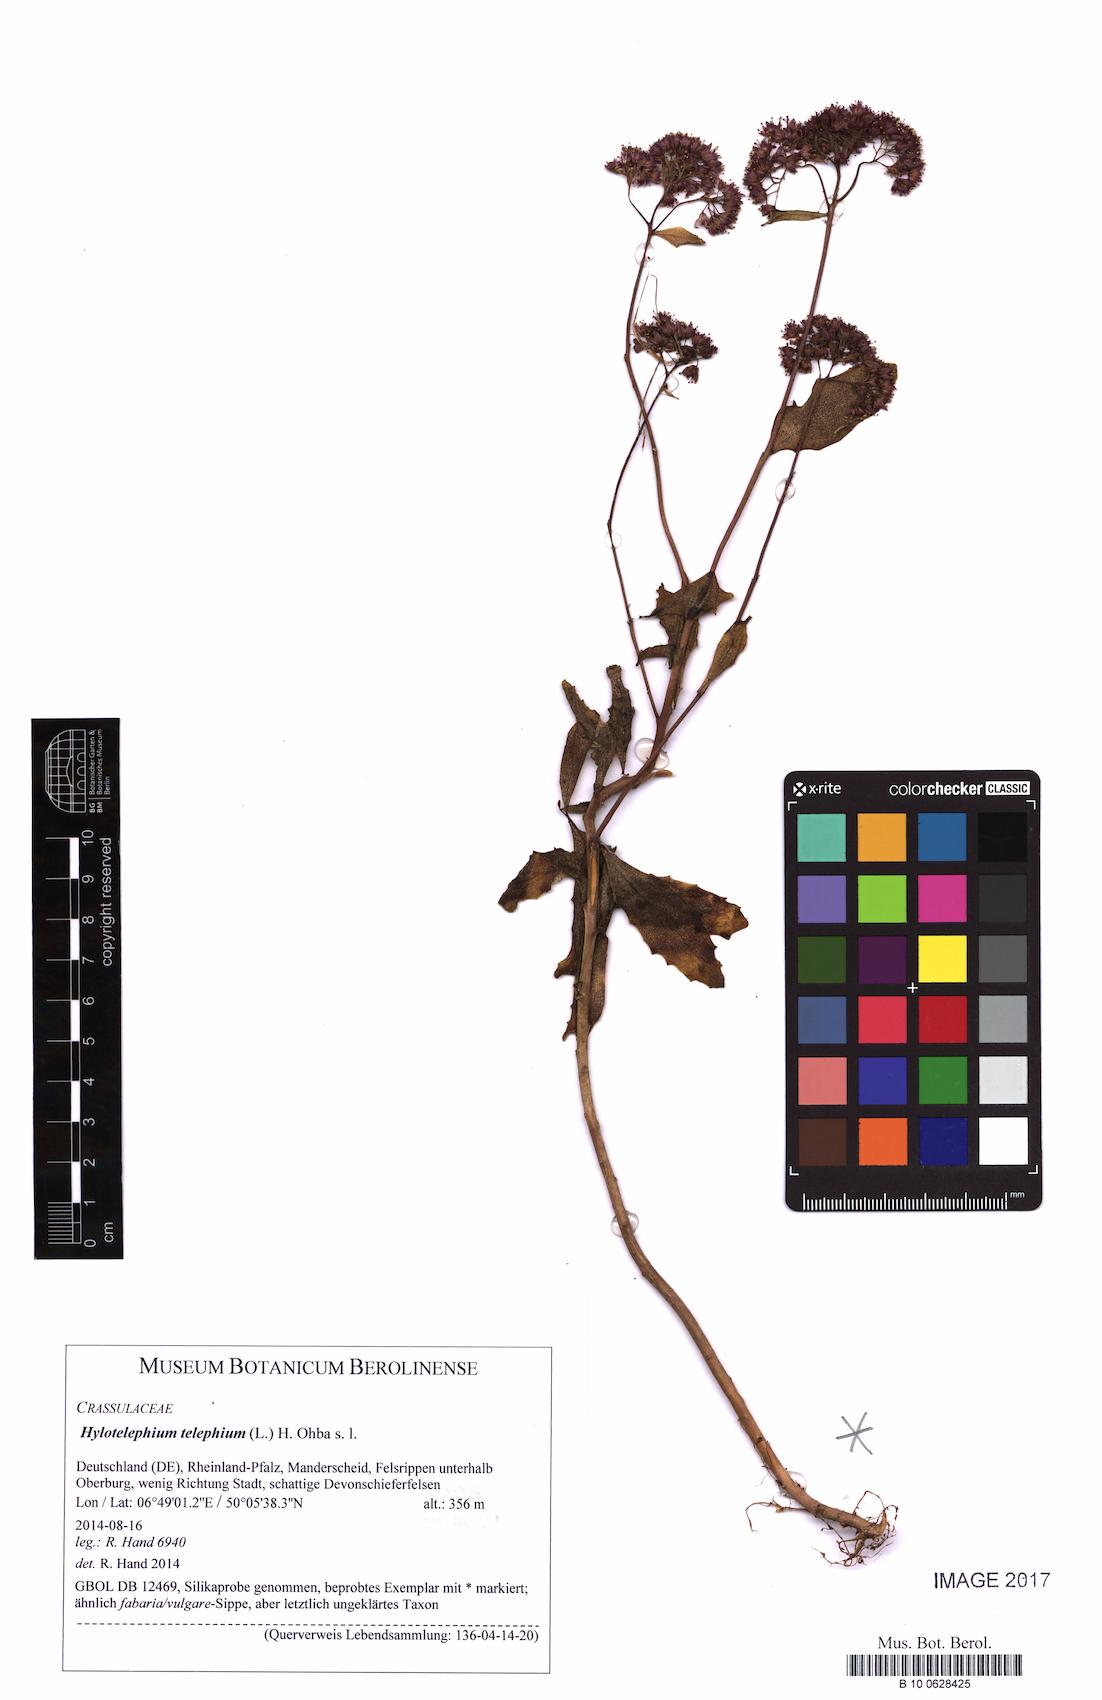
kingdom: Plantae
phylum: Tracheophyta
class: Magnoliopsida
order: Saxifragales
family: Crassulaceae
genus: Hylotelephium
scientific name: Hylotelephium telephium
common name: Live-forever
